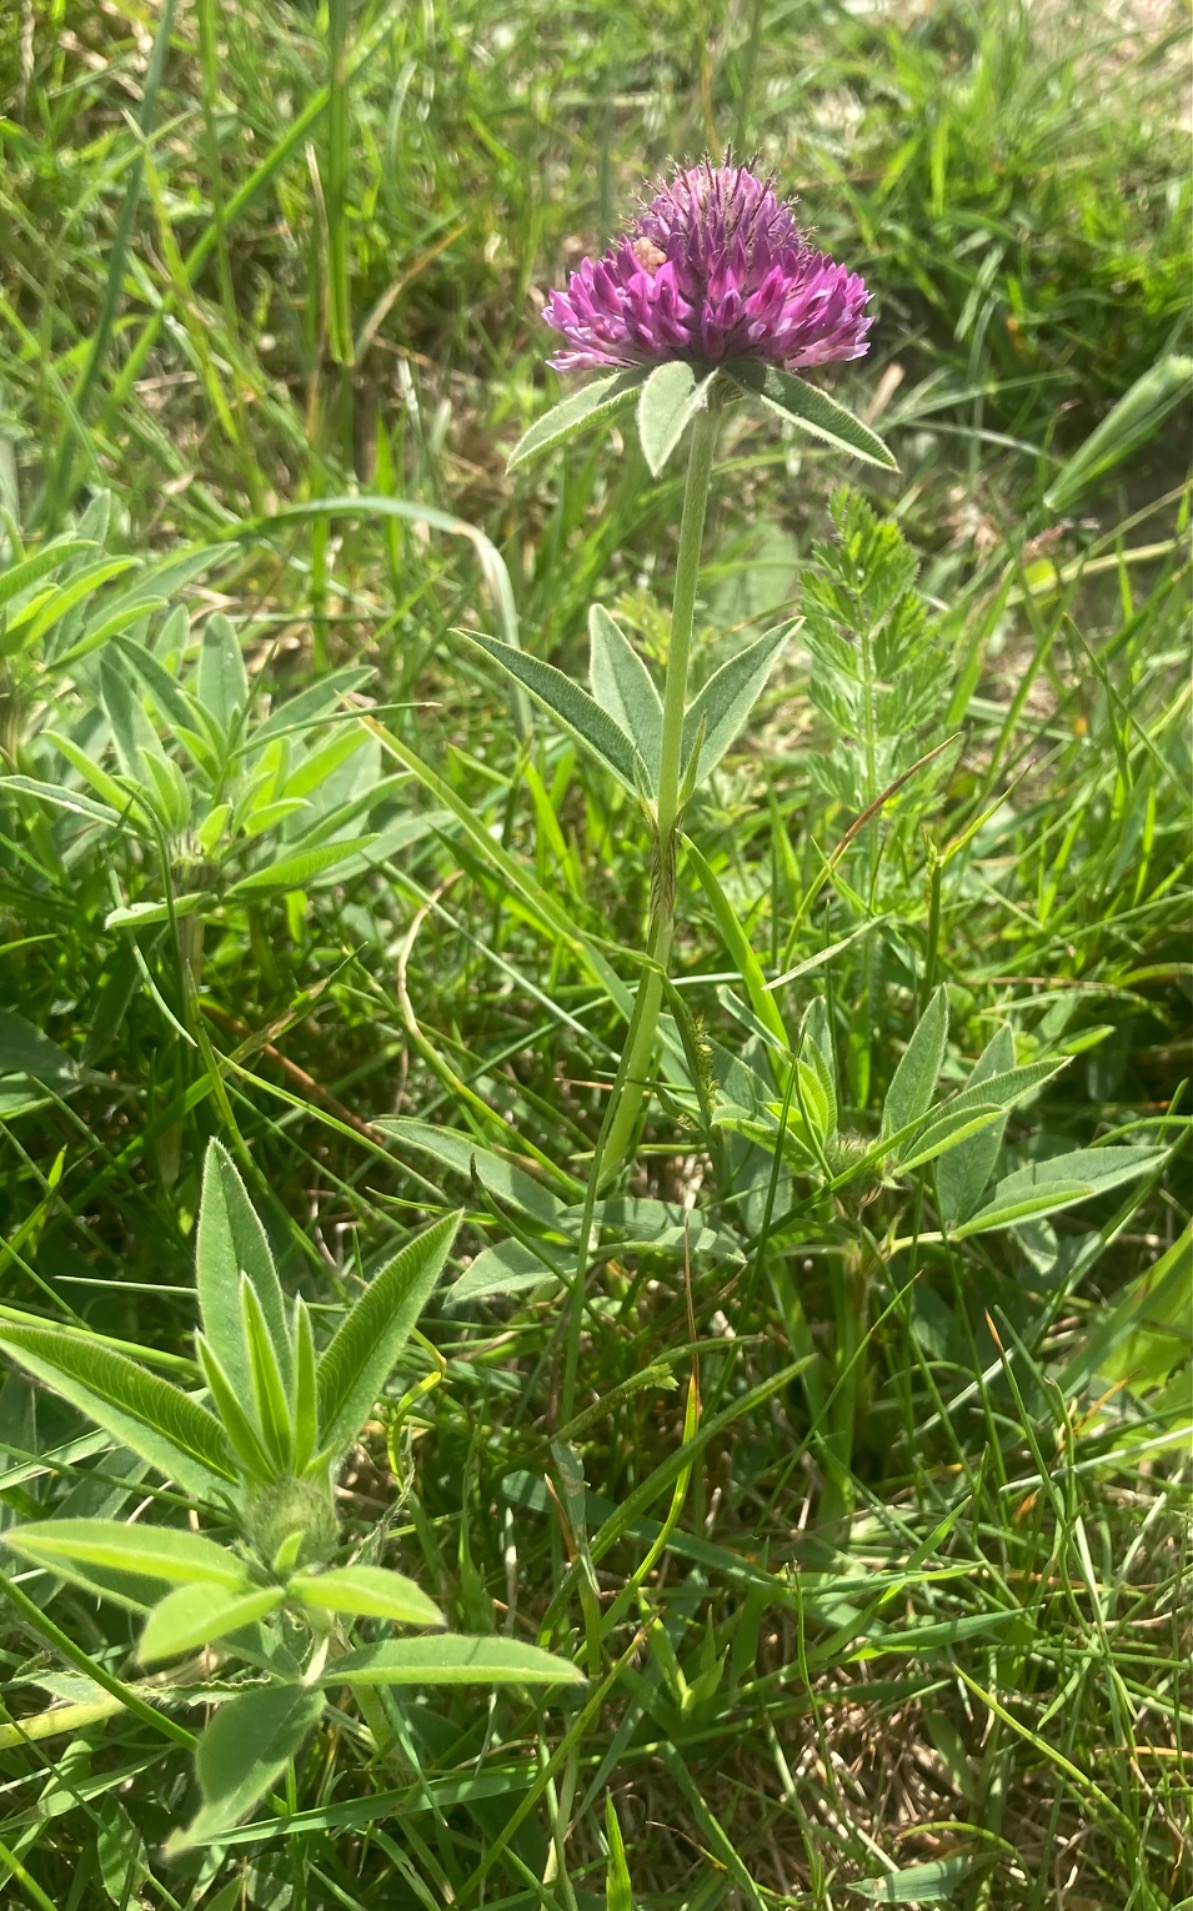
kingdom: Plantae
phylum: Tracheophyta
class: Magnoliopsida
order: Fabales
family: Fabaceae
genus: Trifolium
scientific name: Trifolium alpestre
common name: Skov-kløver
